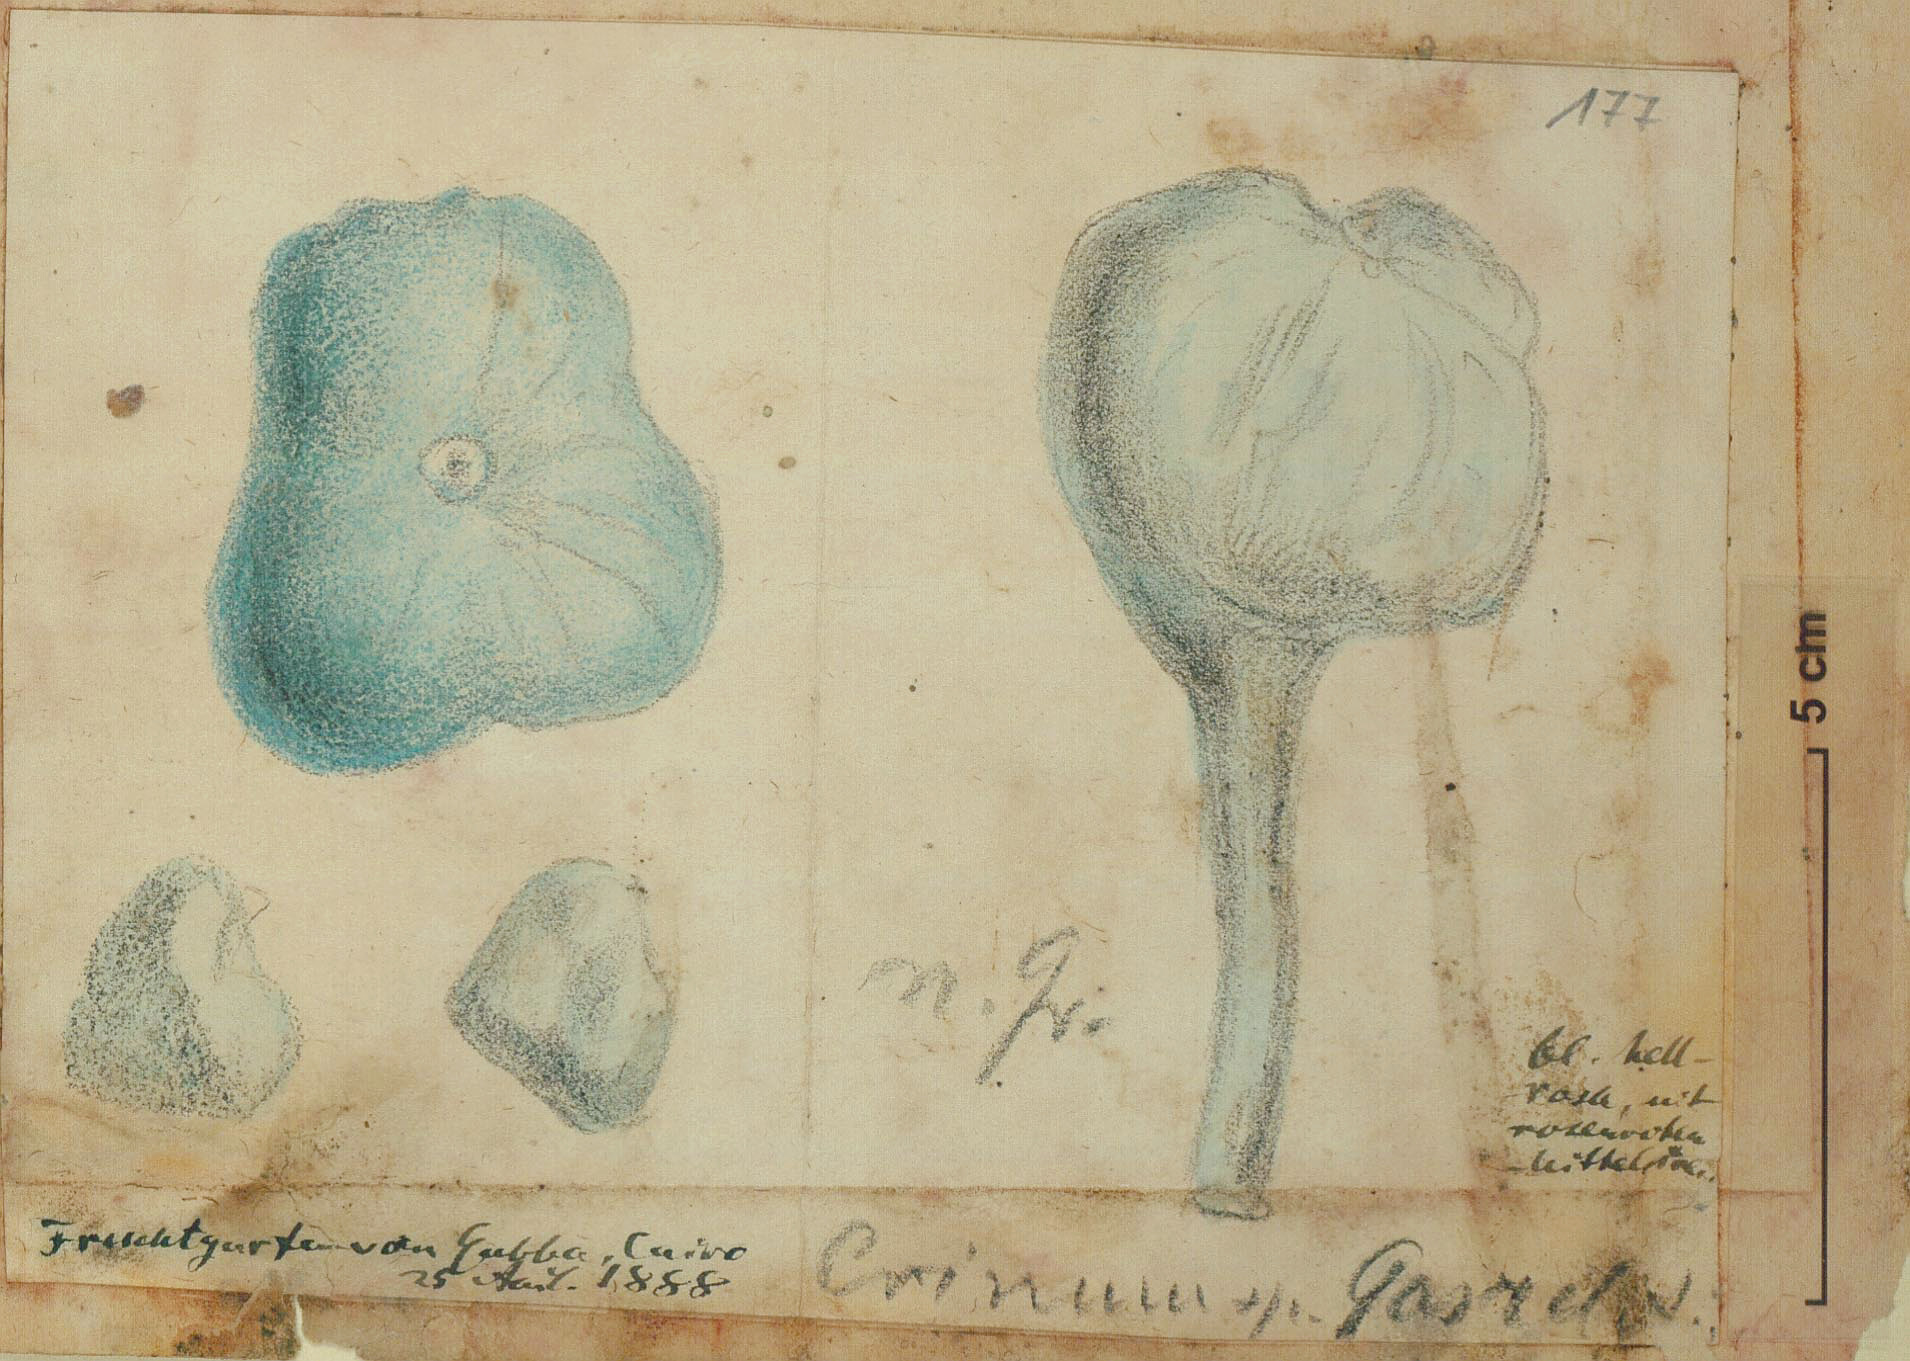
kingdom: Plantae
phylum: Tracheophyta
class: Liliopsida
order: Asparagales
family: Amaryllidaceae
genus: Crinum
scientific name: Crinum
